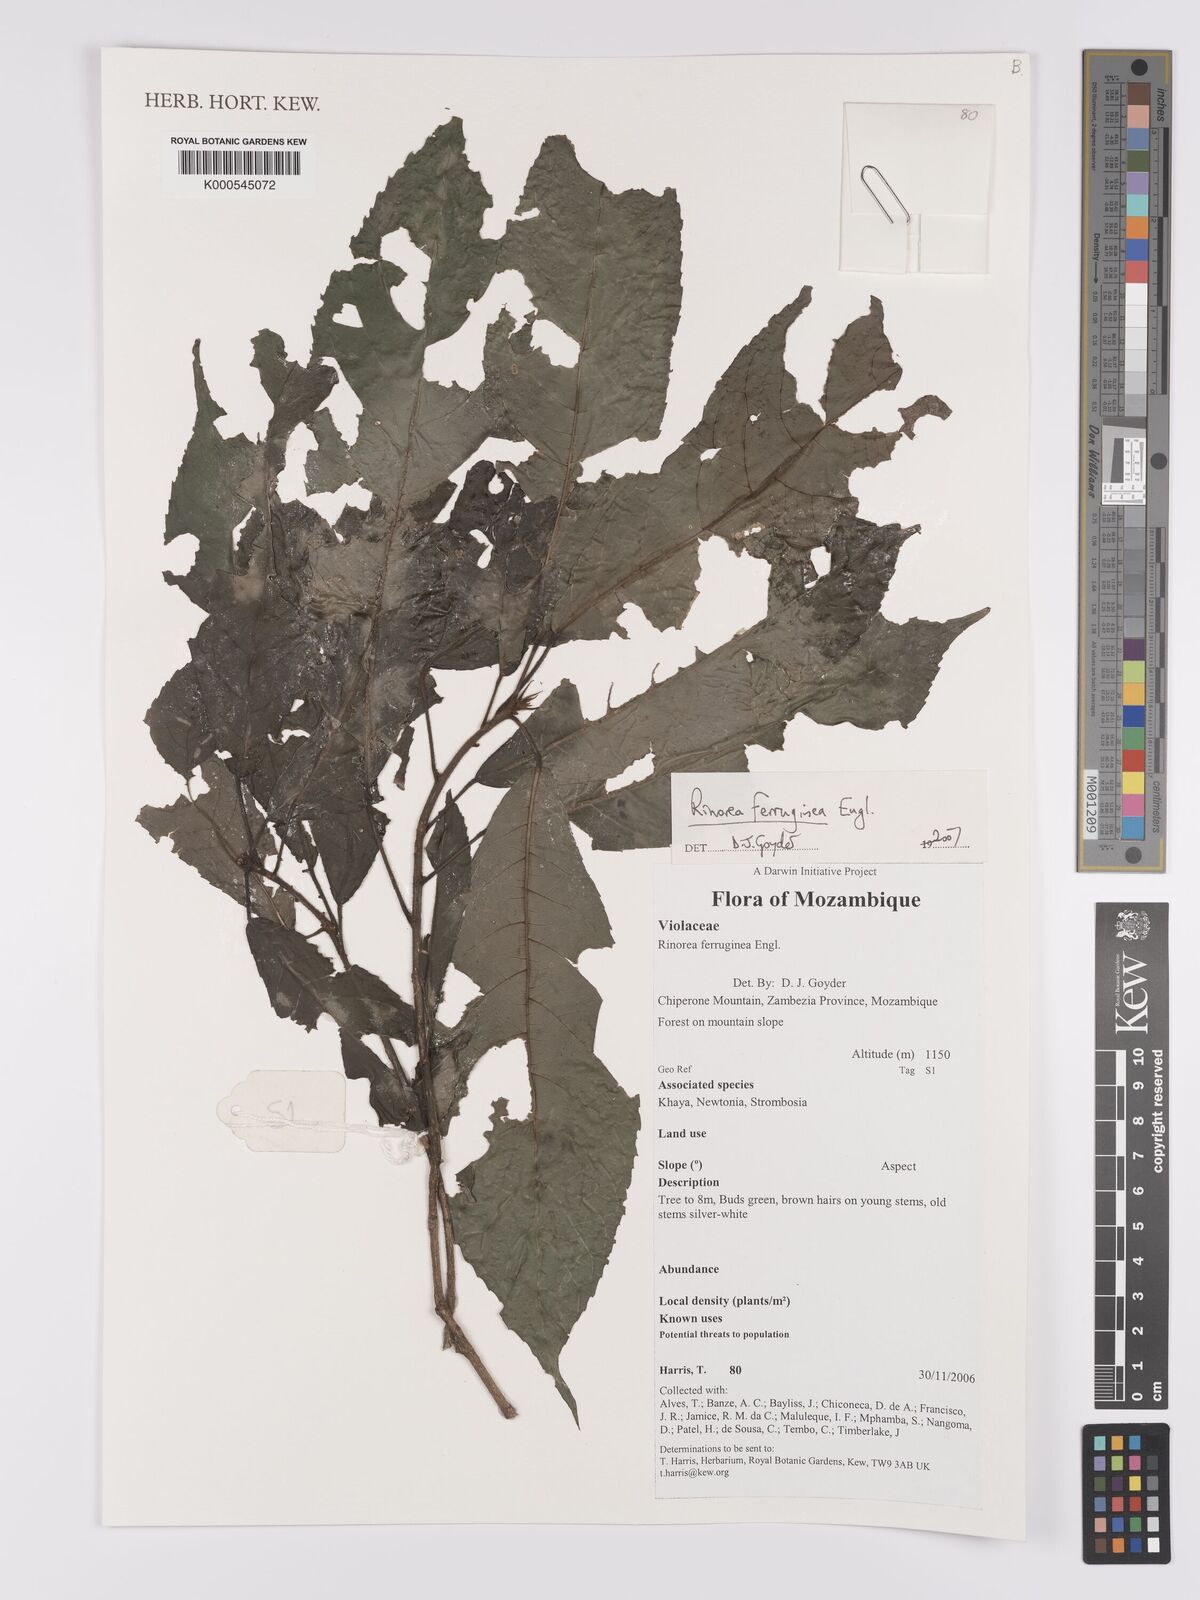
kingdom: Plantae
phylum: Tracheophyta
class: Magnoliopsida
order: Malpighiales
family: Violaceae
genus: Rinorea
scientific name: Rinorea ferruginea
